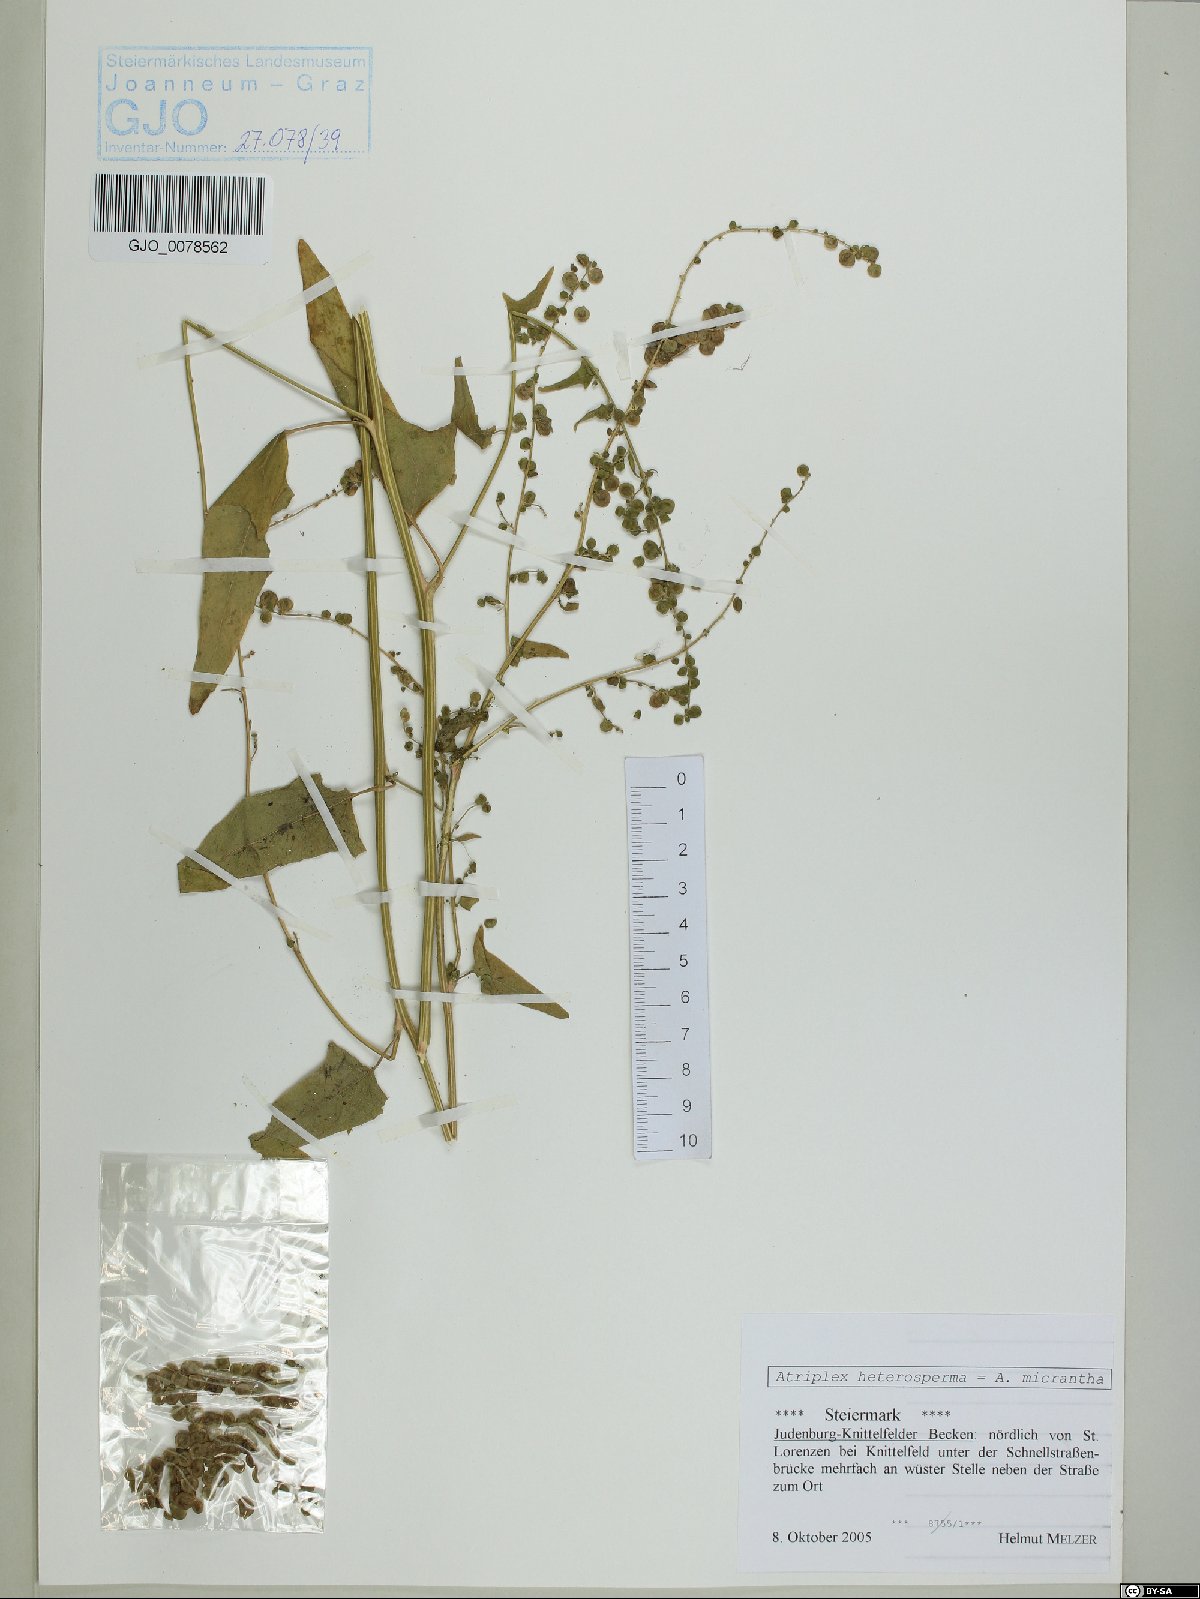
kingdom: Plantae
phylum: Tracheophyta
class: Magnoliopsida
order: Caryophyllales
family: Amaranthaceae
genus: Atriplex
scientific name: Atriplex micrantha
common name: Twoscale saltbush
